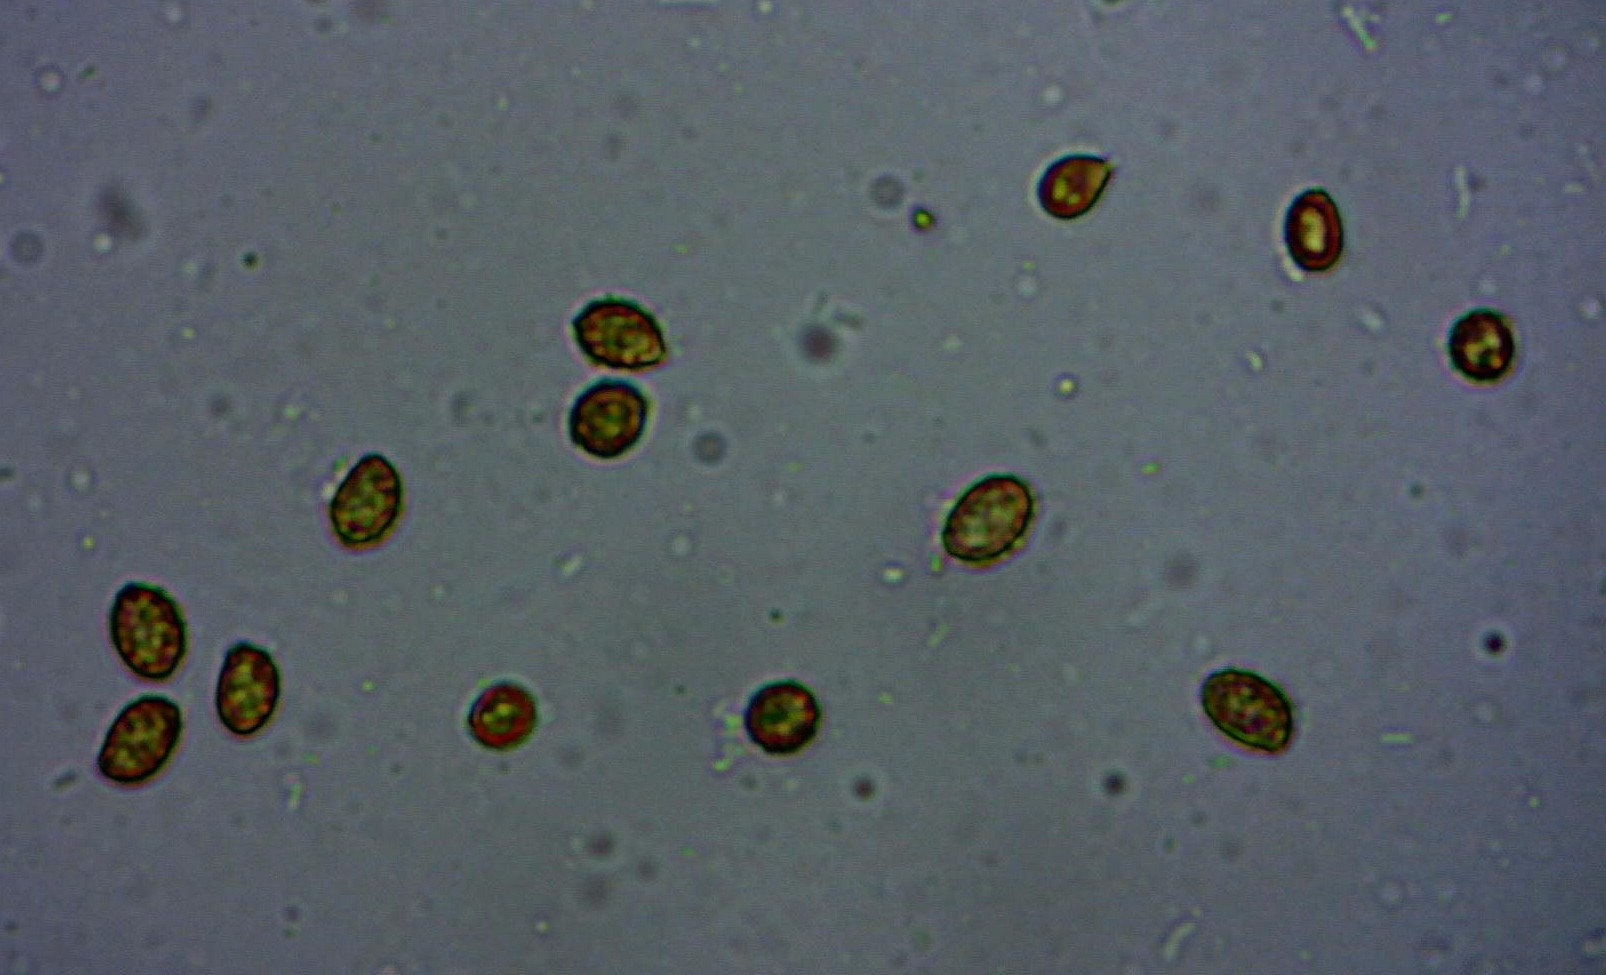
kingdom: Fungi
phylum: Basidiomycota
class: Agaricomycetes
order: Agaricales
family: Cortinariaceae
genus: Cortinarius
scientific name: Cortinarius
